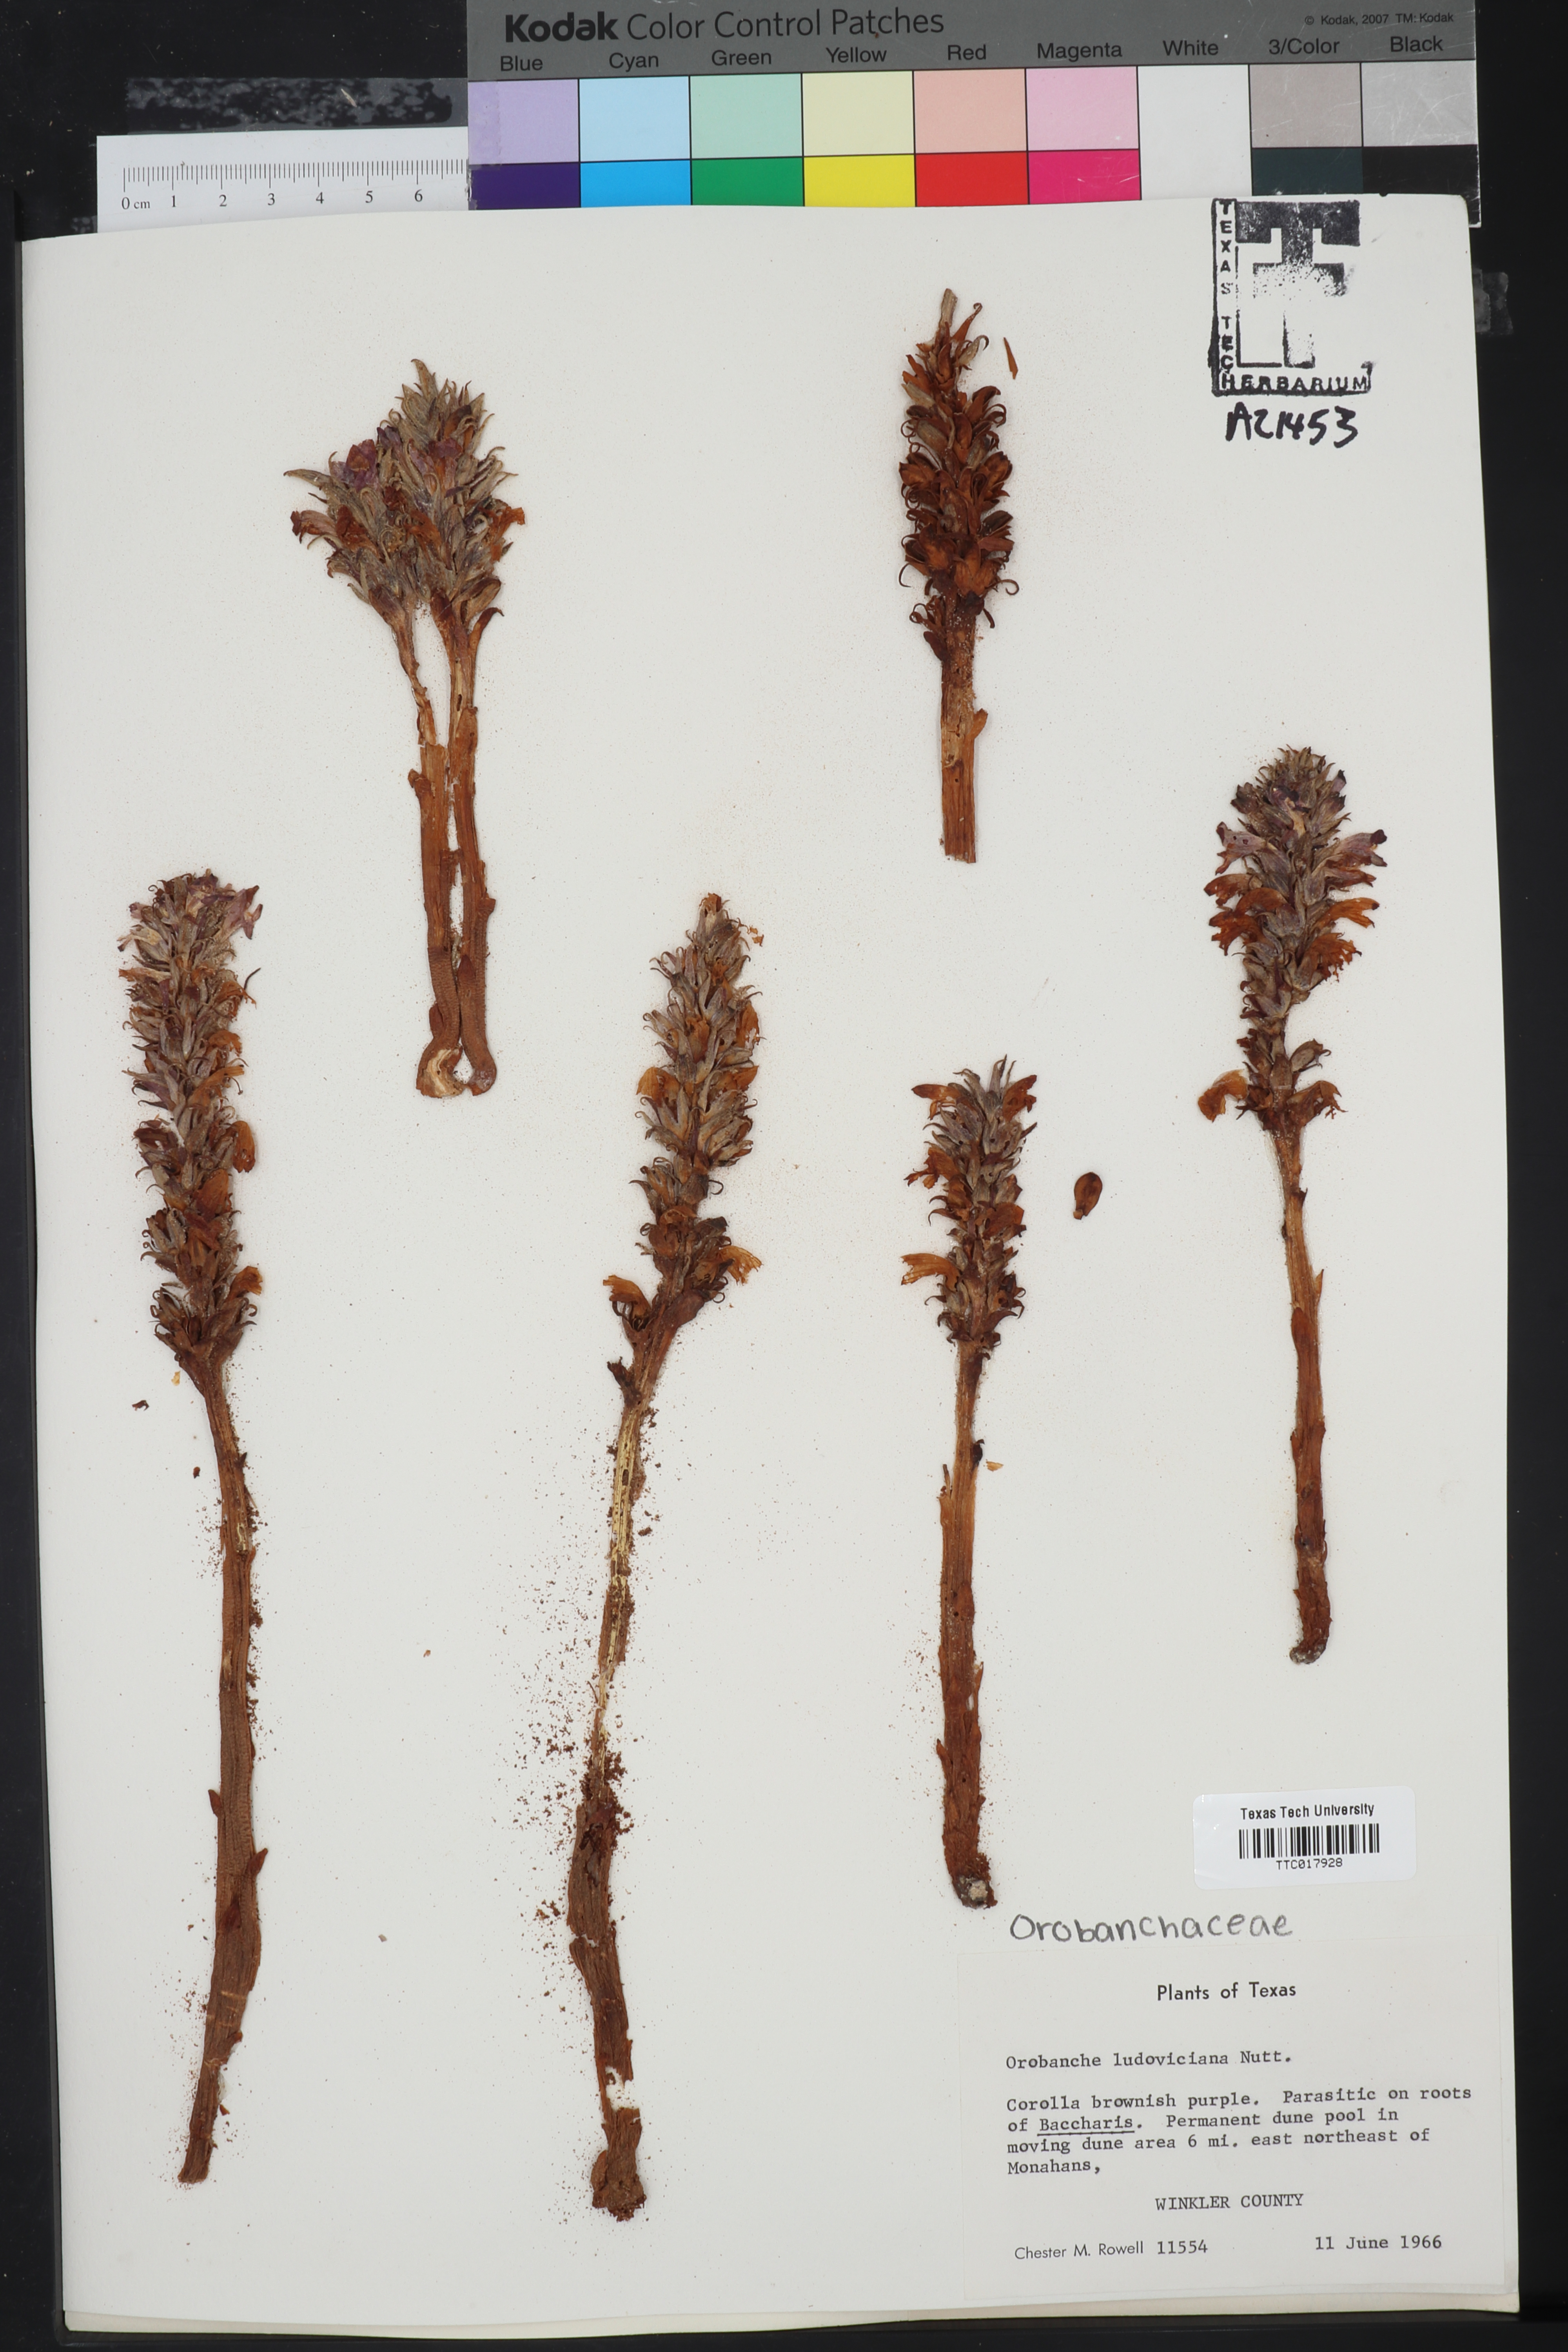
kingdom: Plantae
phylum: Tracheophyta
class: Magnoliopsida
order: Lamiales
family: Orobanchaceae
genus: Aphyllon
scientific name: Aphyllon ludovicianum
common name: Louisiana broomrape
